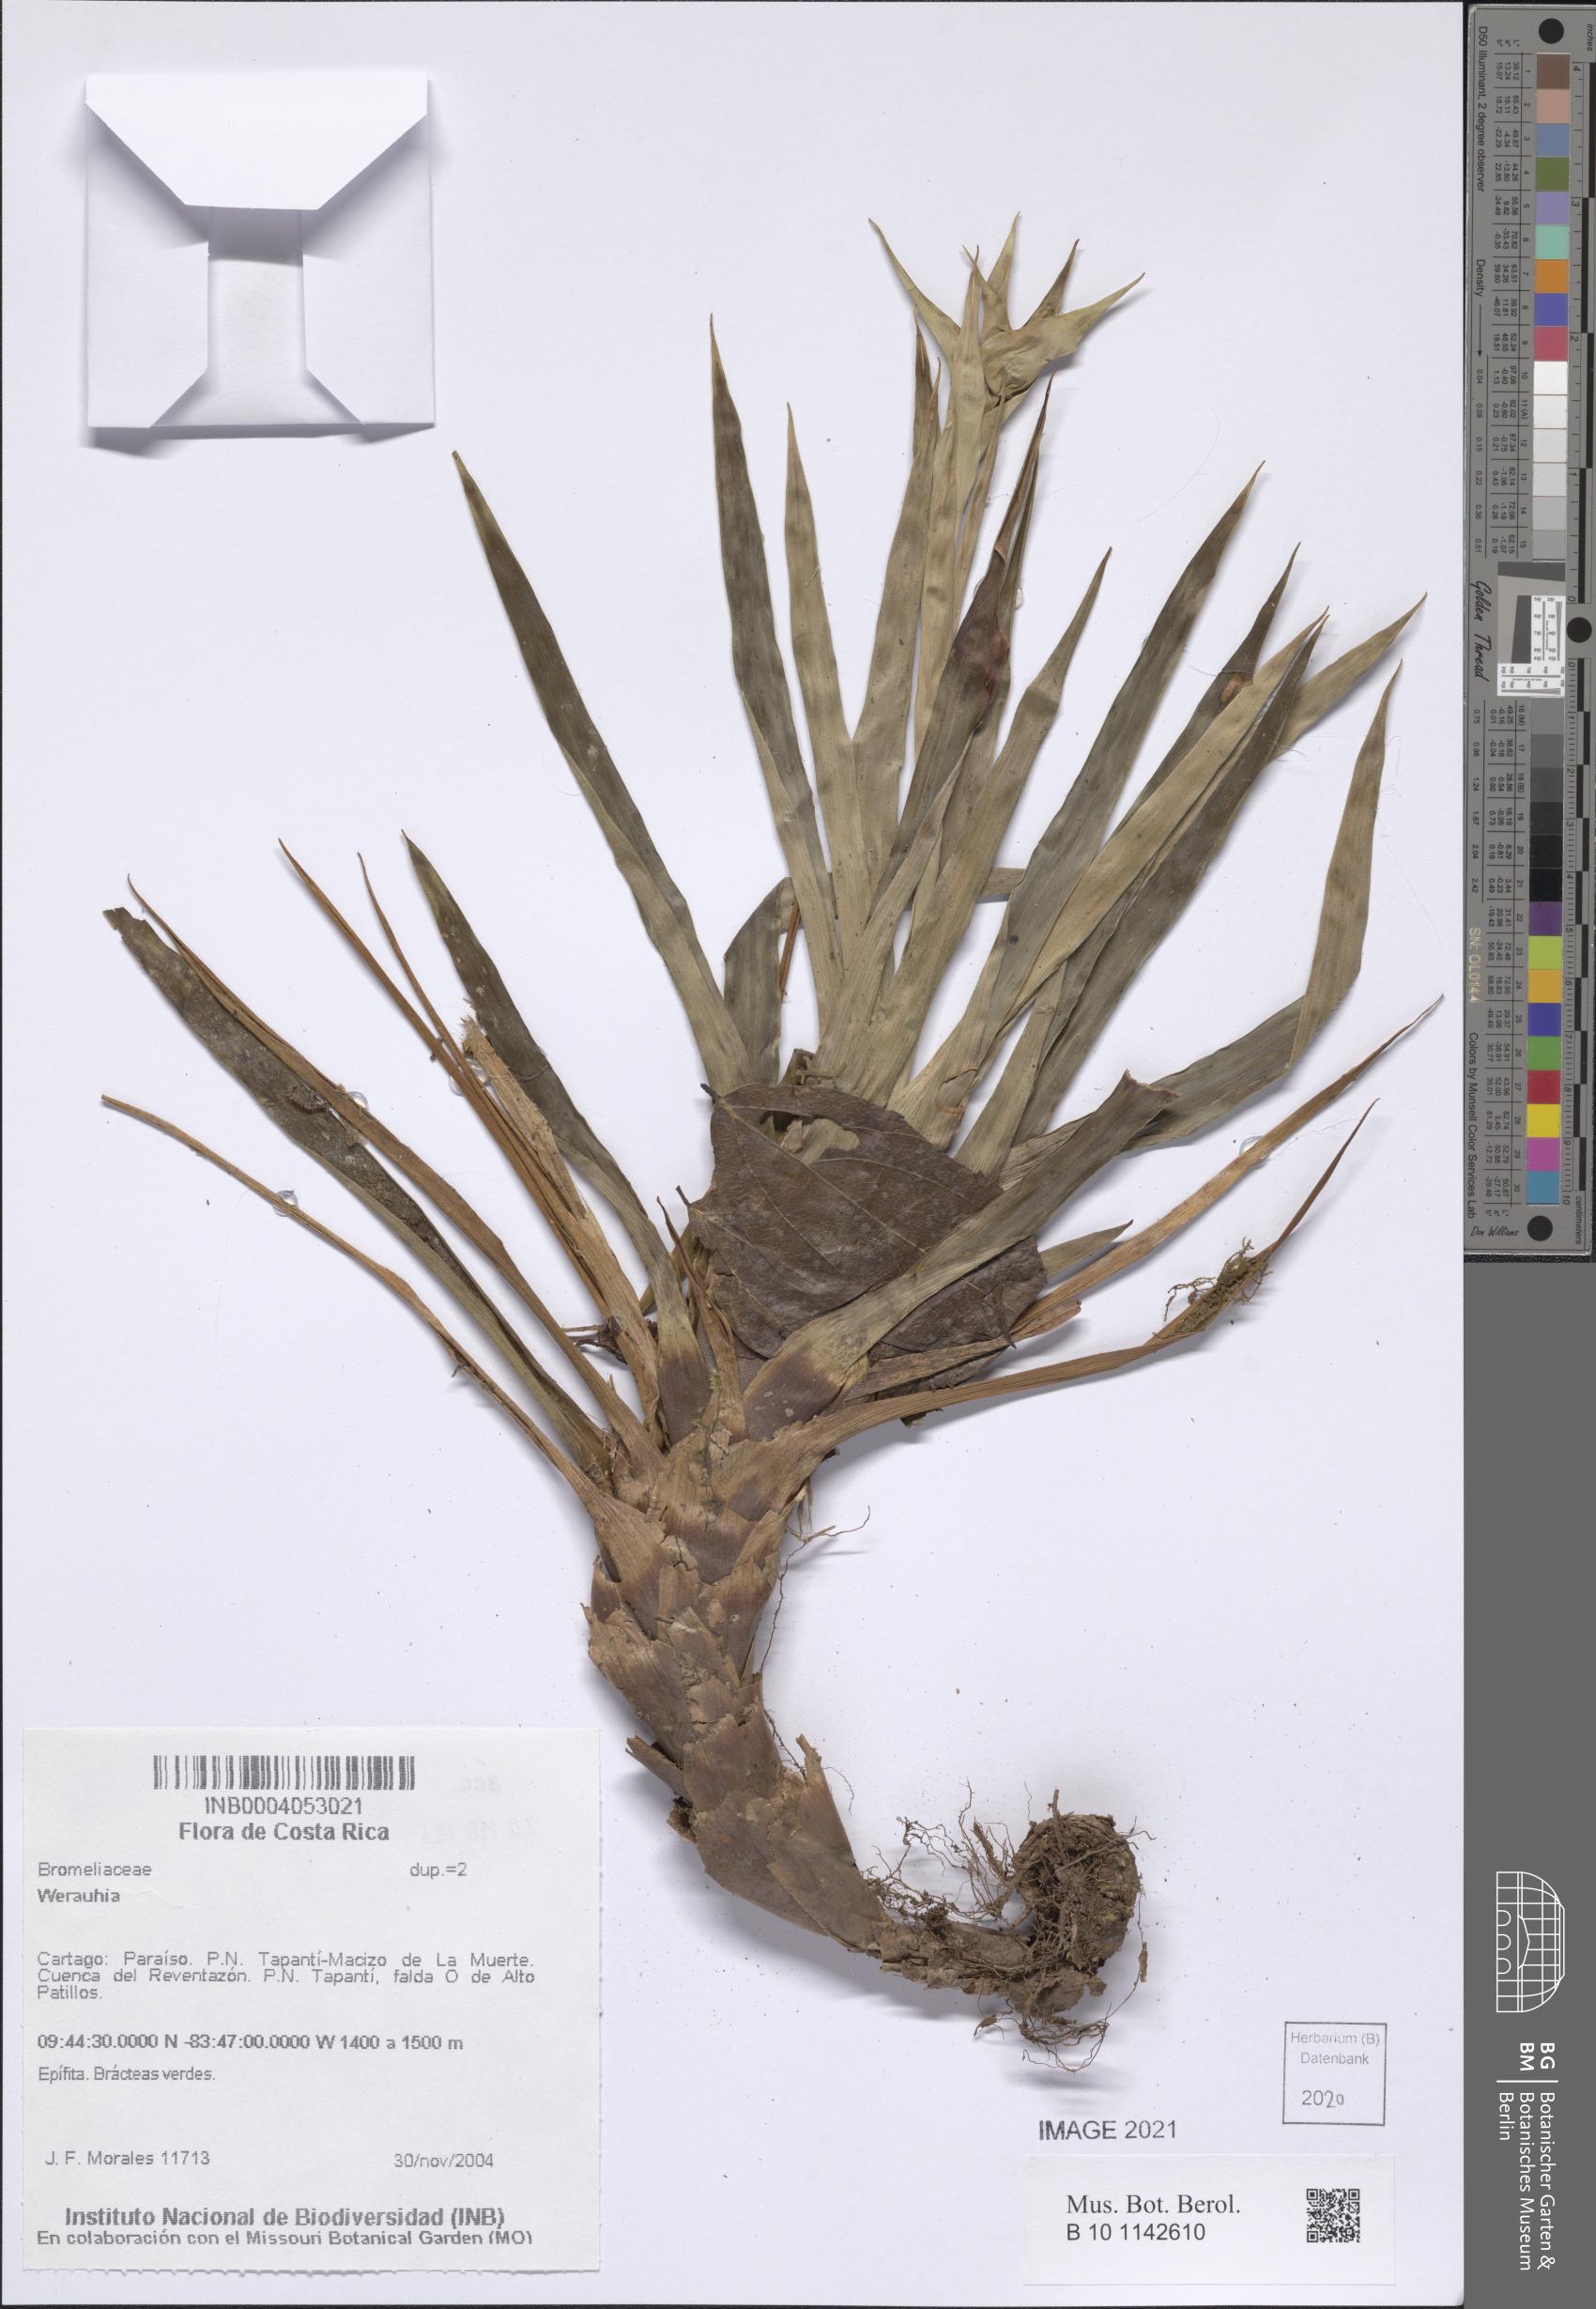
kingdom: Plantae
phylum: Tracheophyta
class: Liliopsida
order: Poales
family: Bromeliaceae
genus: Werauhia
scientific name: Werauhia
